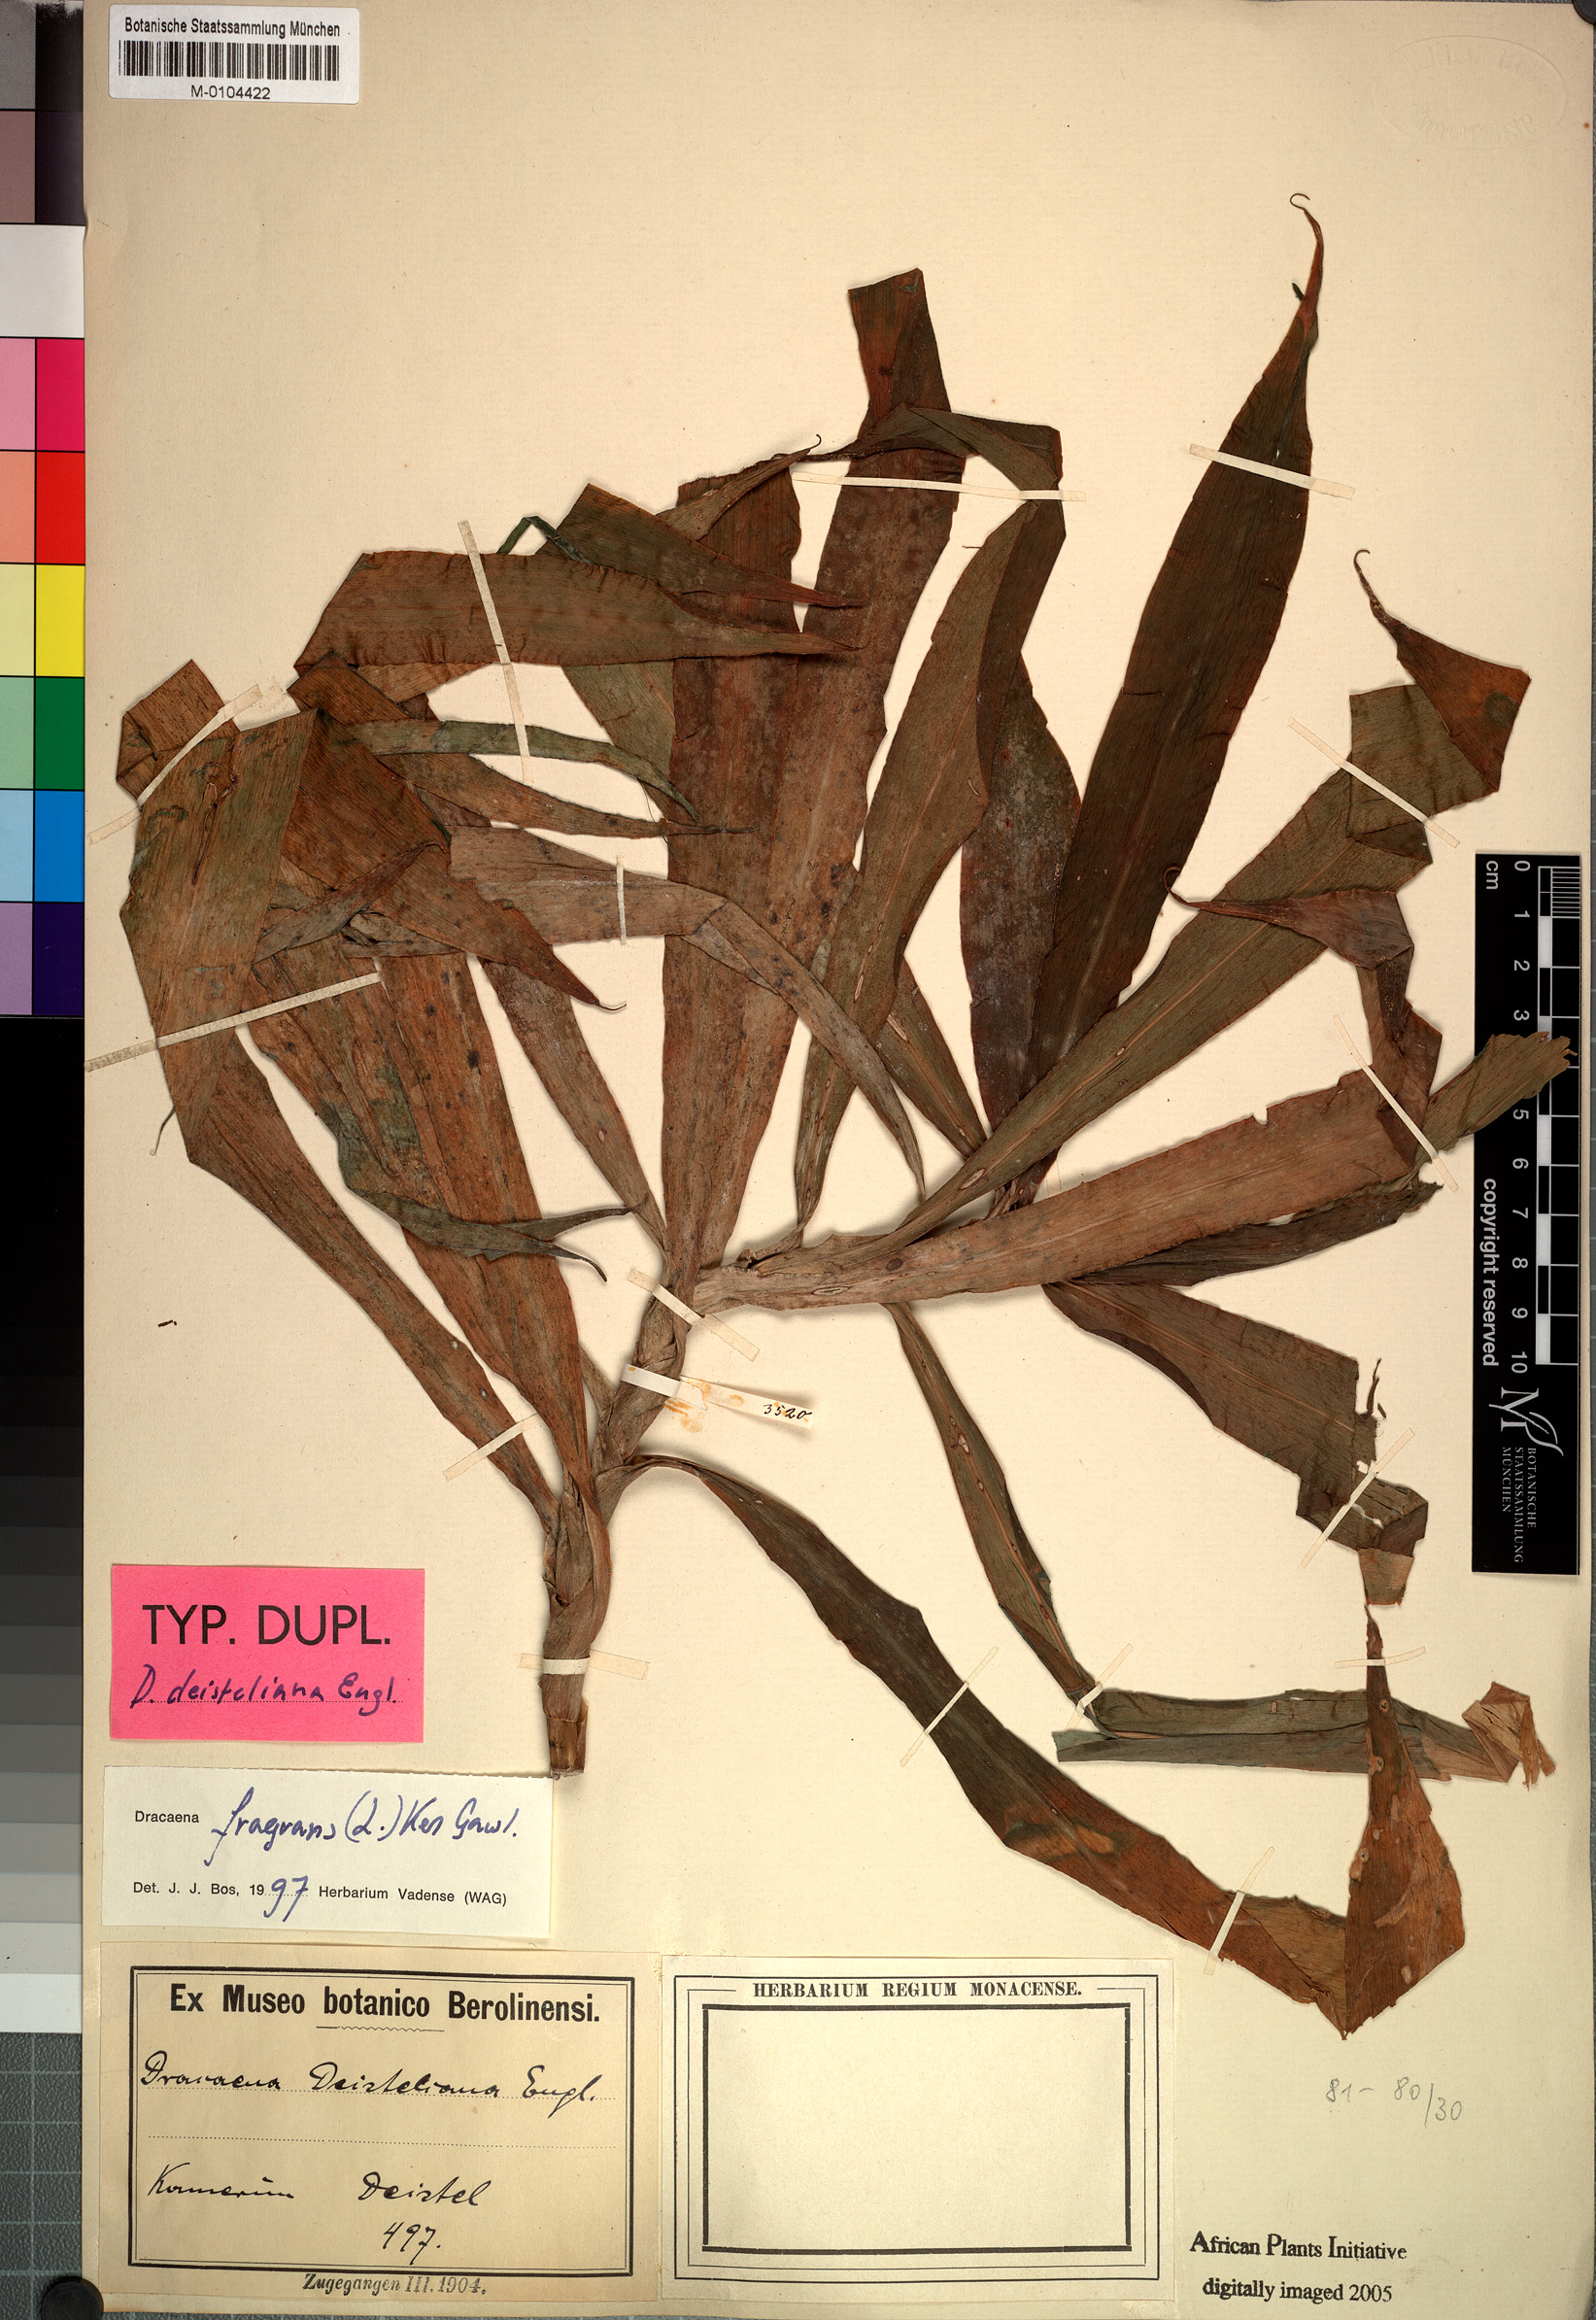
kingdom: Plantae
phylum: Tracheophyta
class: Liliopsida
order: Asparagales
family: Asparagaceae
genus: Dracaena
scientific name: Dracaena fragrans
